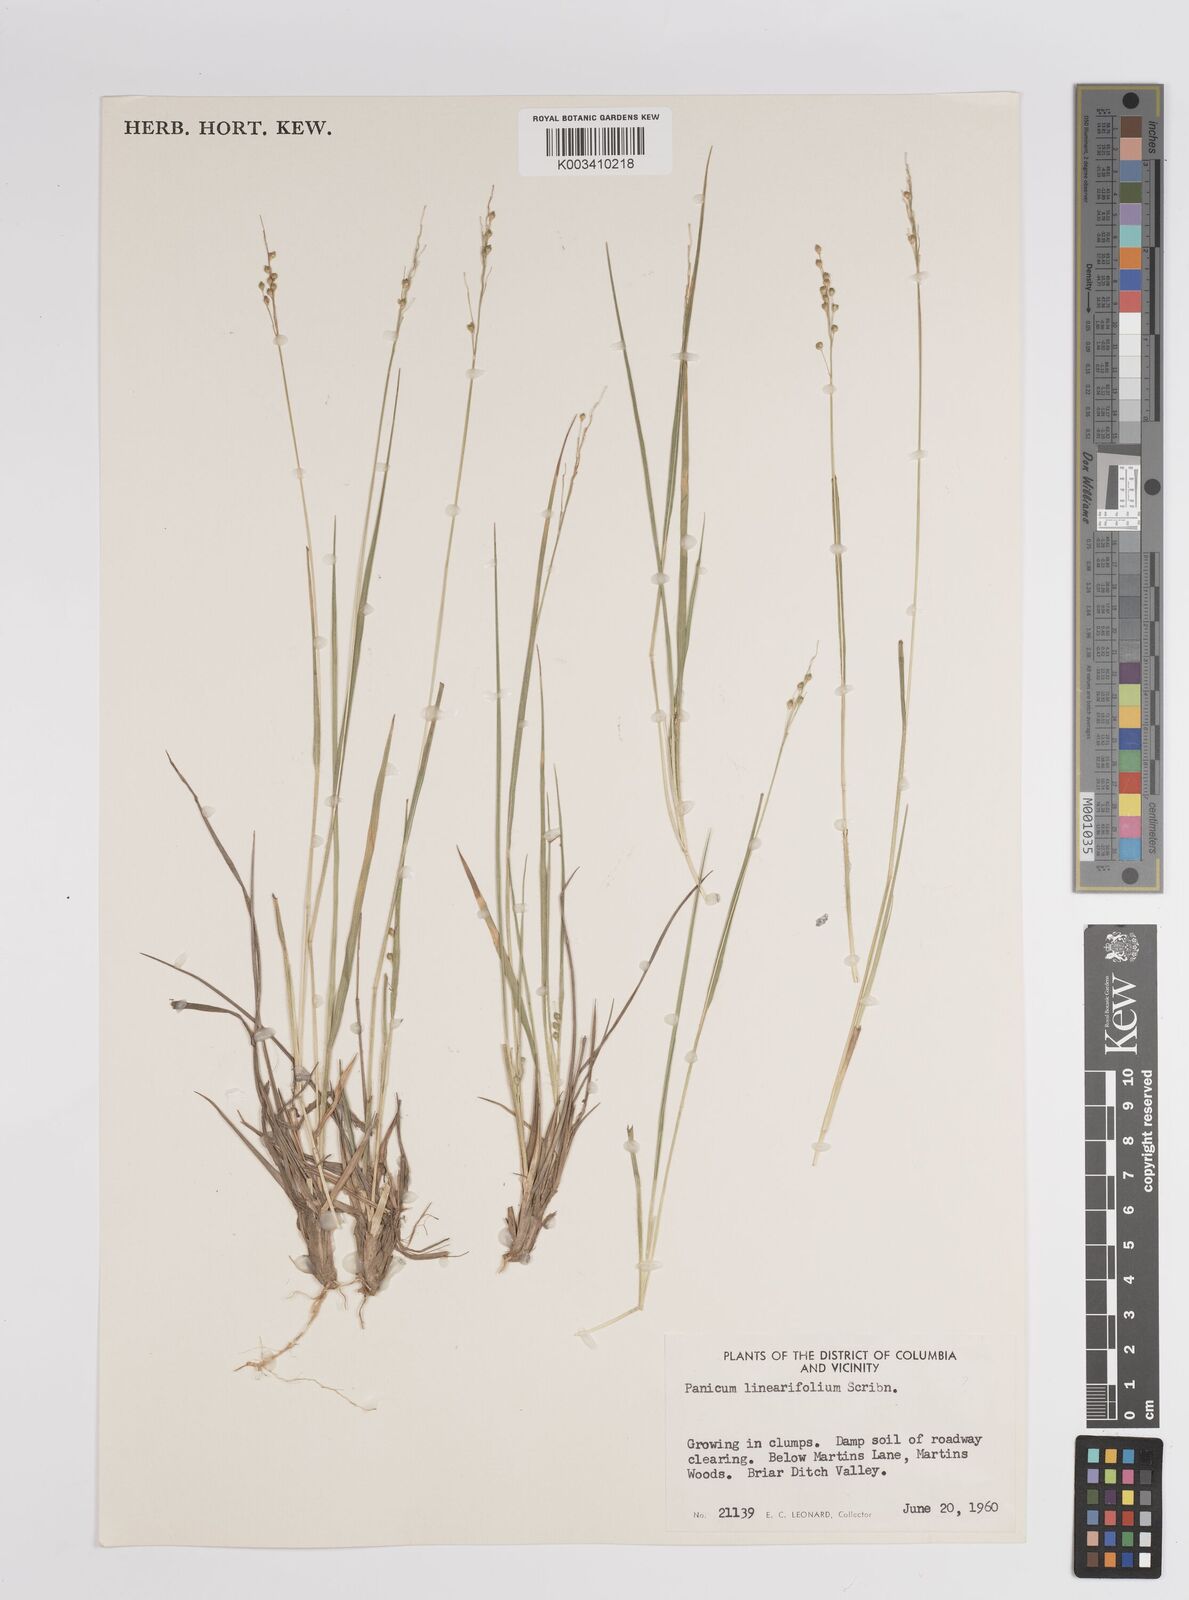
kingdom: Plantae
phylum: Tracheophyta
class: Liliopsida
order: Poales
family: Poaceae
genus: Dichanthelium
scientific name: Dichanthelium linearifolium
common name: Linear-leaved panicgrass
